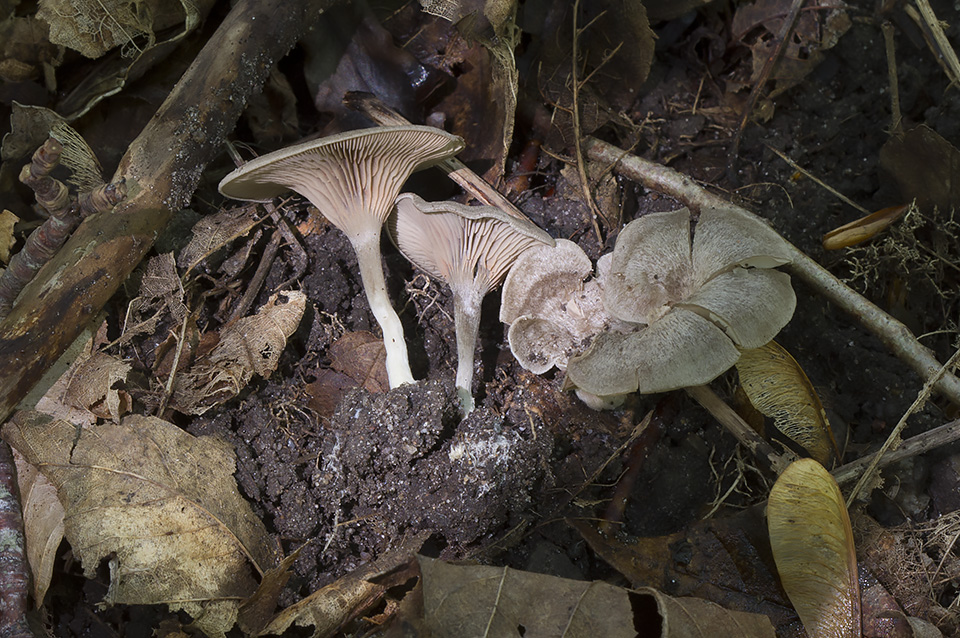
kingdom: Fungi
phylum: Basidiomycota
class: Agaricomycetes
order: Agaricales
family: Entolomataceae
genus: Entoloma
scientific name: Entoloma undatum
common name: bæltet rødblad
